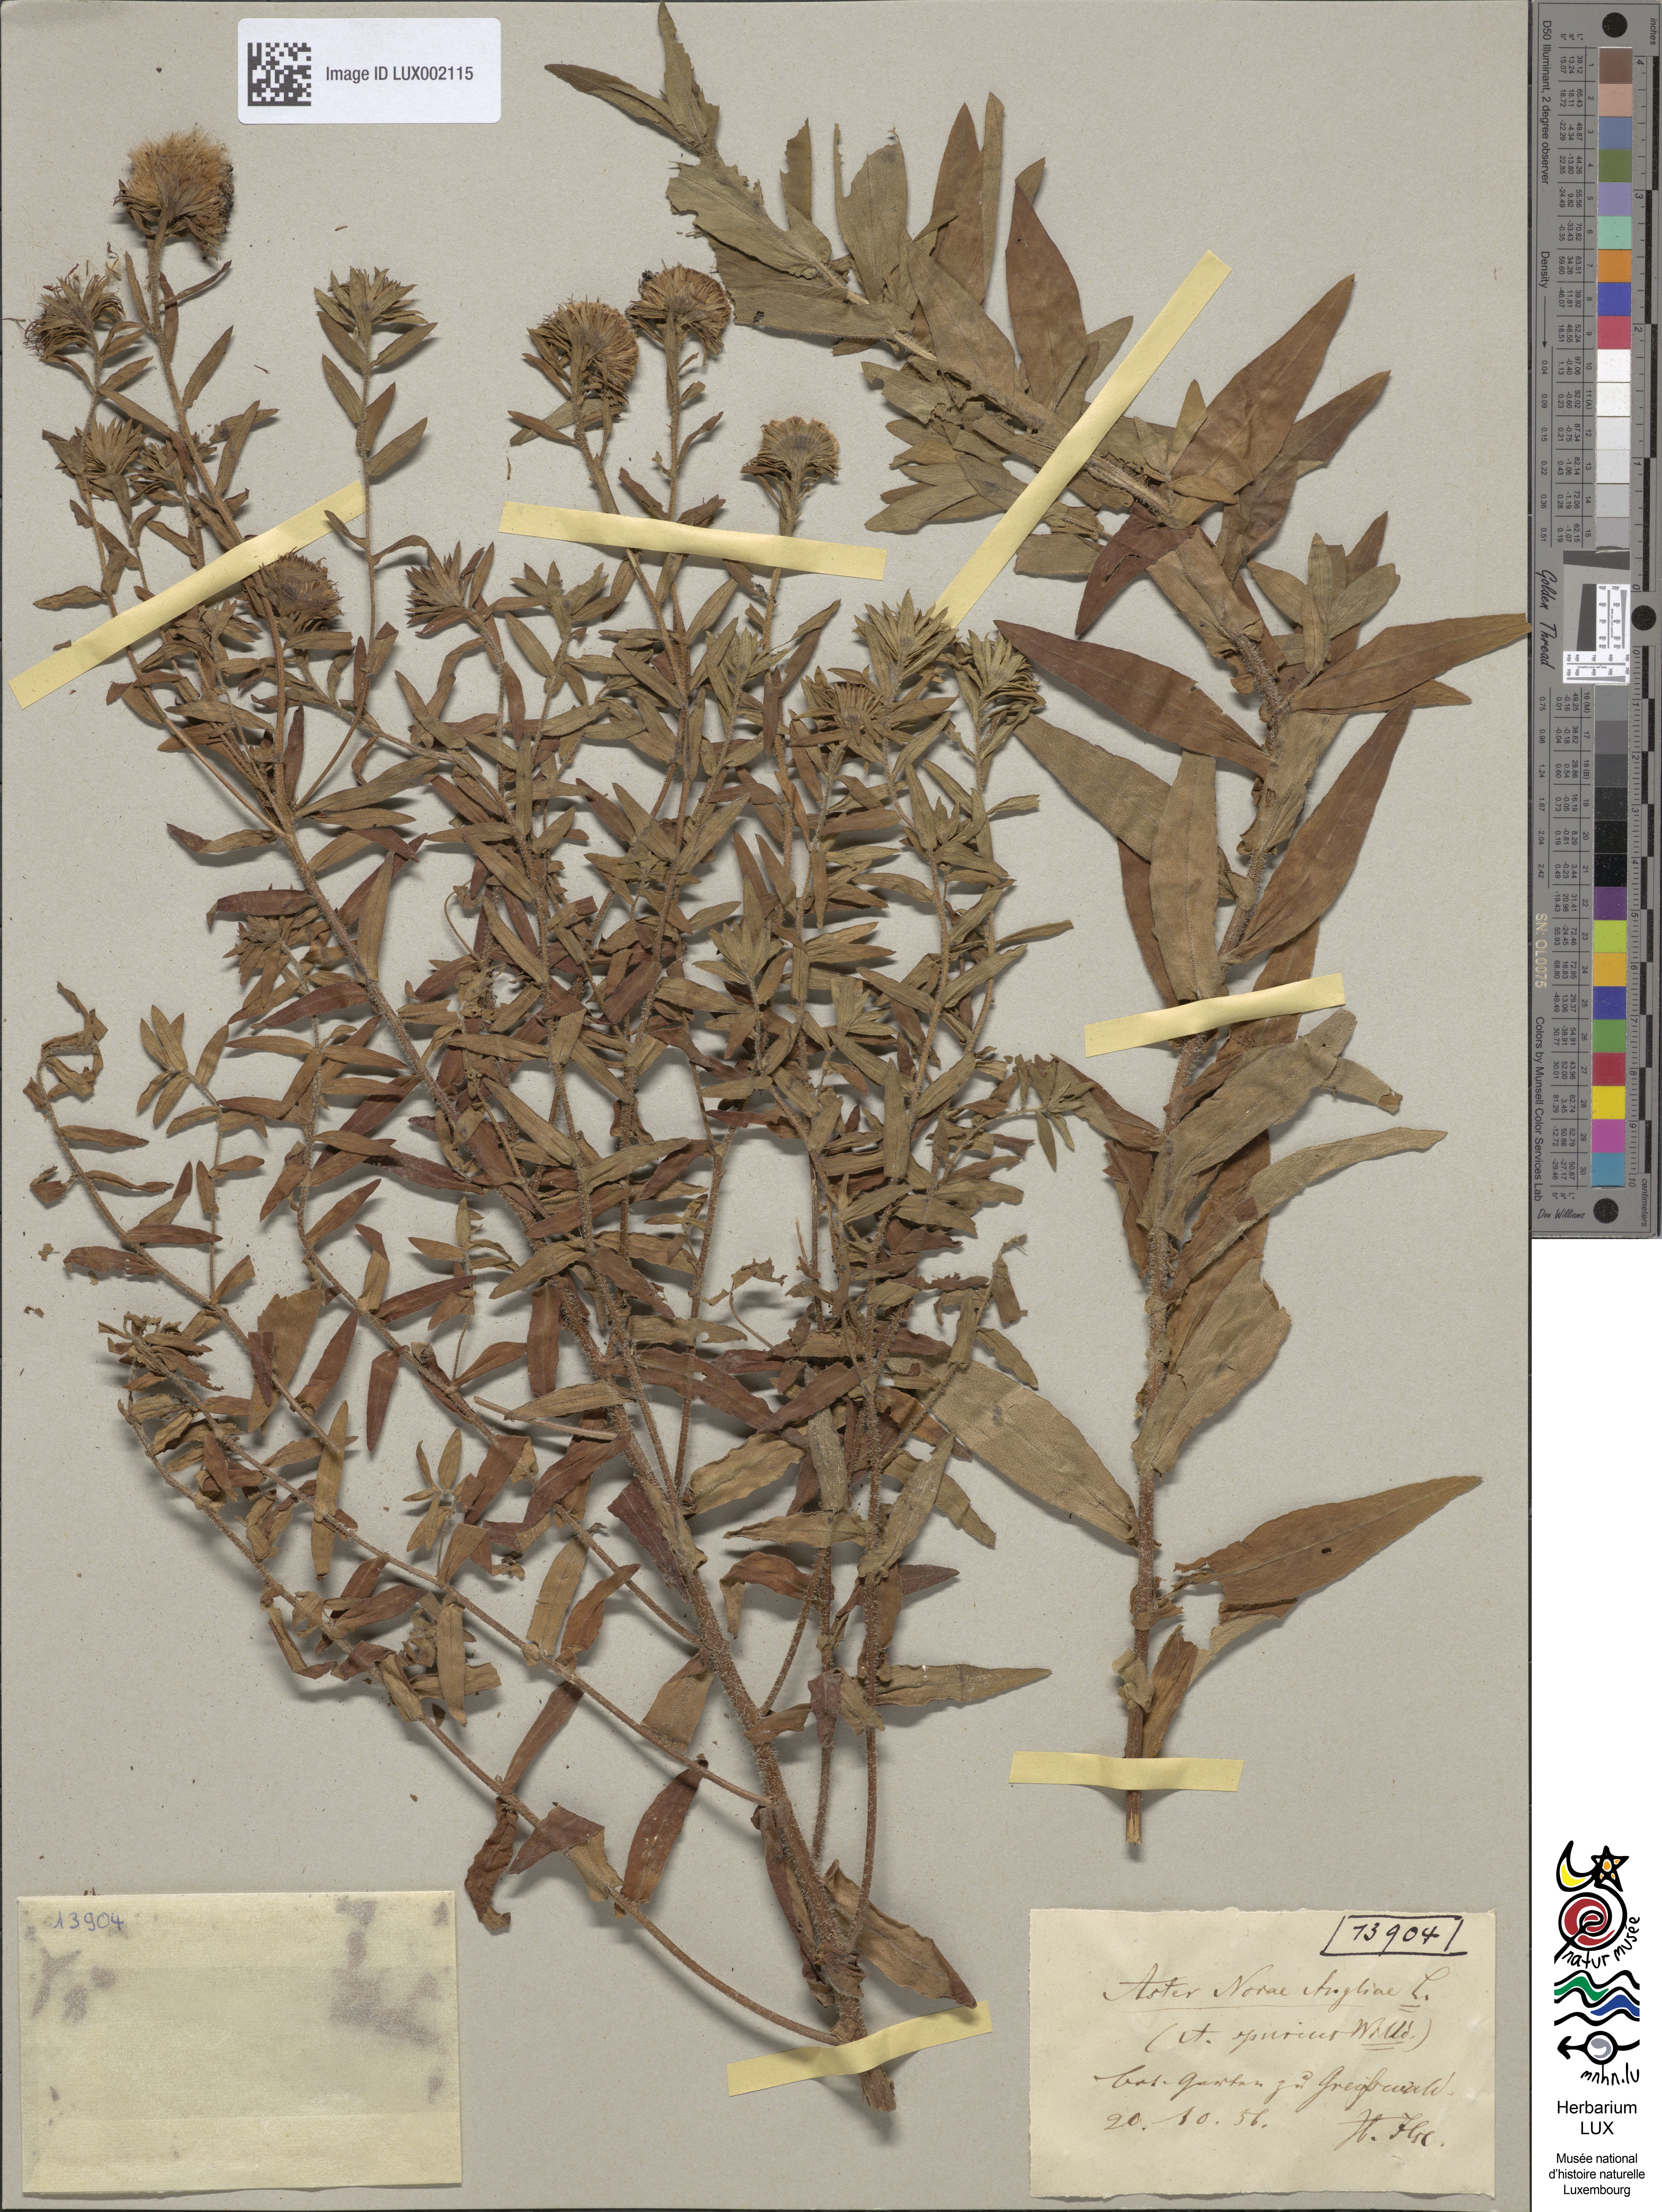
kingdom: Plantae
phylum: Tracheophyta
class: Magnoliopsida
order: Asterales
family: Asteraceae
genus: Symphyotrichum
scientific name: Symphyotrichum novae-angliae
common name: Michaelmas daisy
